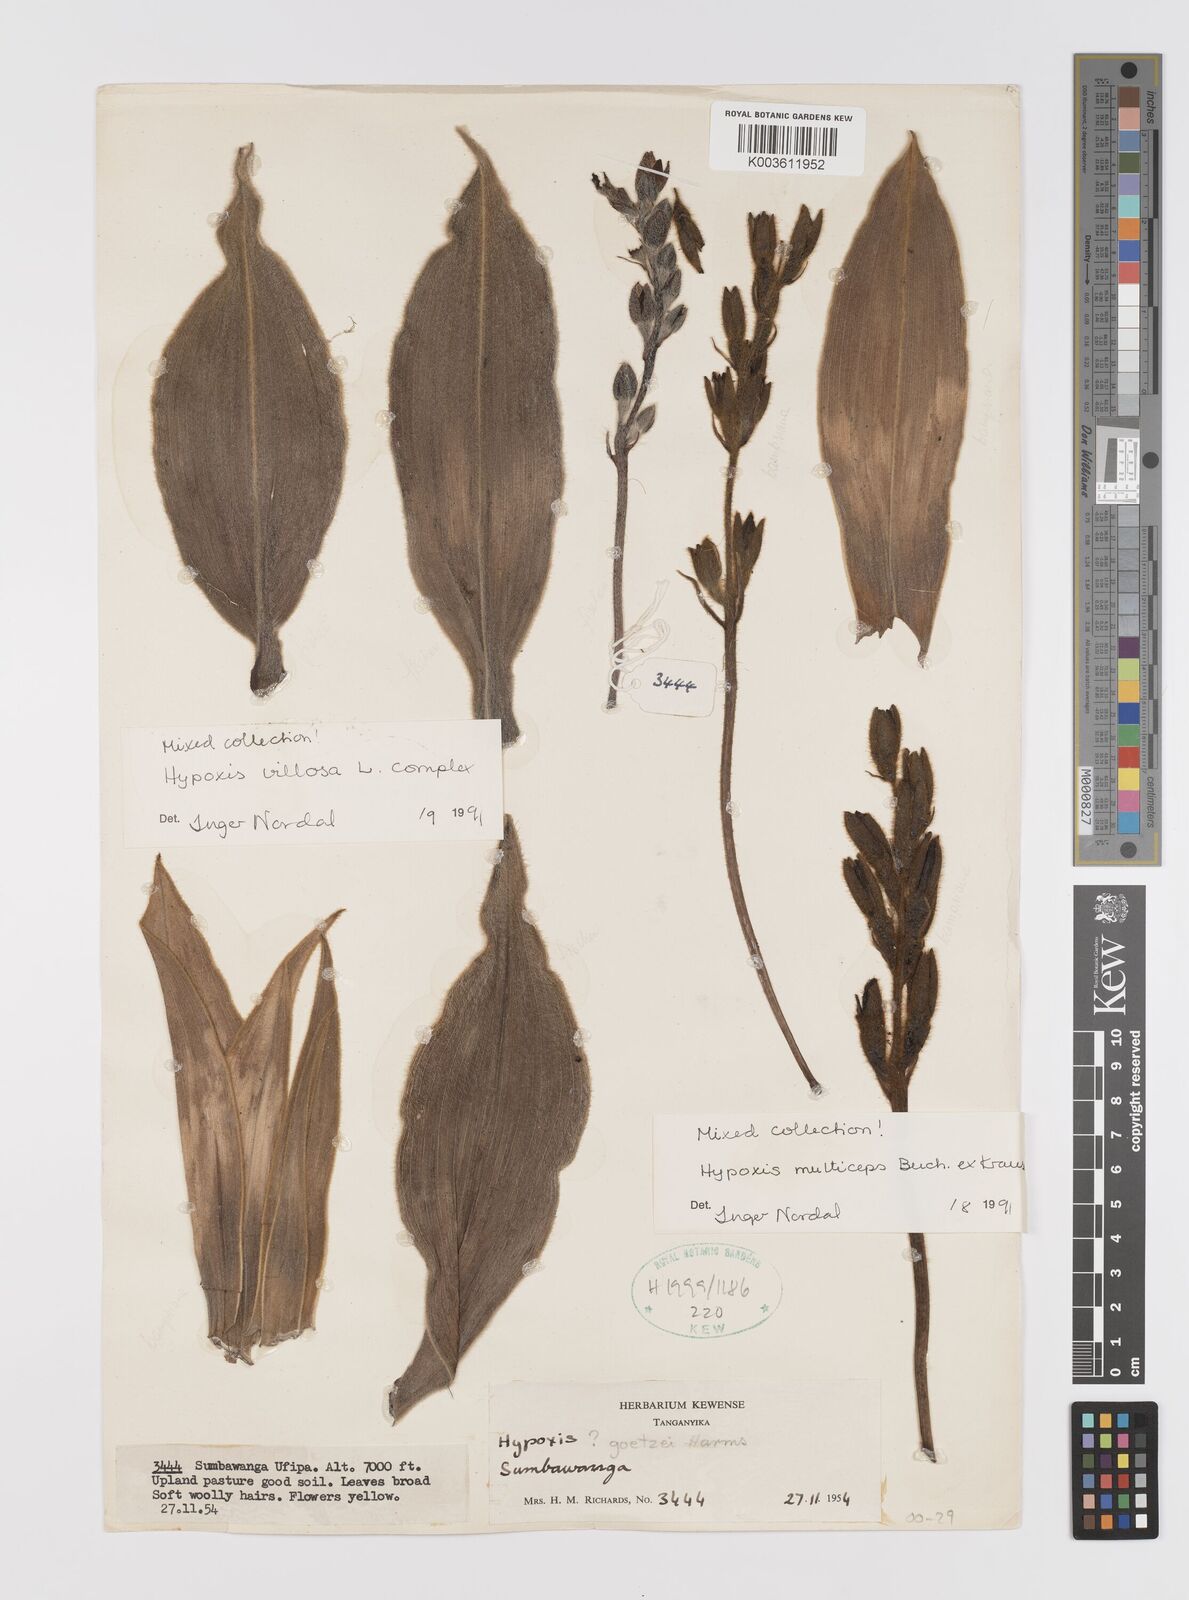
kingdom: Plantae
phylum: Tracheophyta
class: Liliopsida
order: Asparagales
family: Hypoxidaceae
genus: Hypoxis
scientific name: Hypoxis bampsiana
